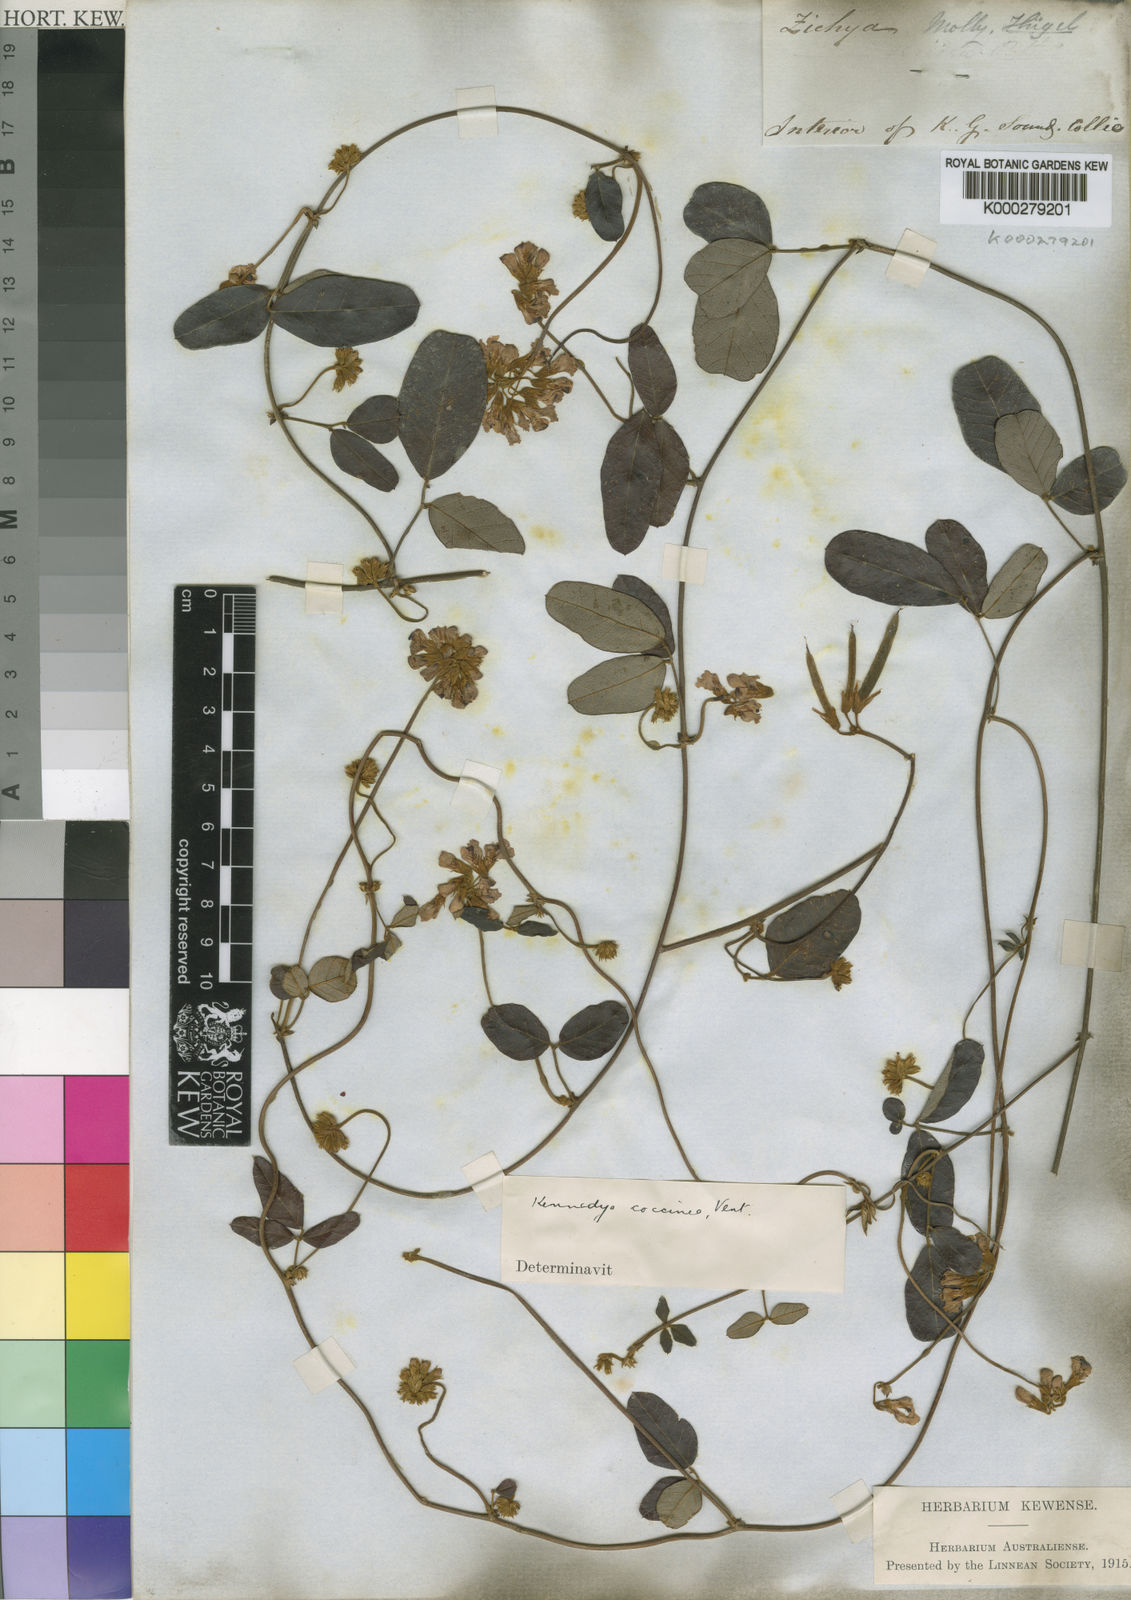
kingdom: Plantae
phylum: Tracheophyta
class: Magnoliopsida
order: Fabales
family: Fabaceae
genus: Kennedia
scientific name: Kennedia coccinea
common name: Coralvine
